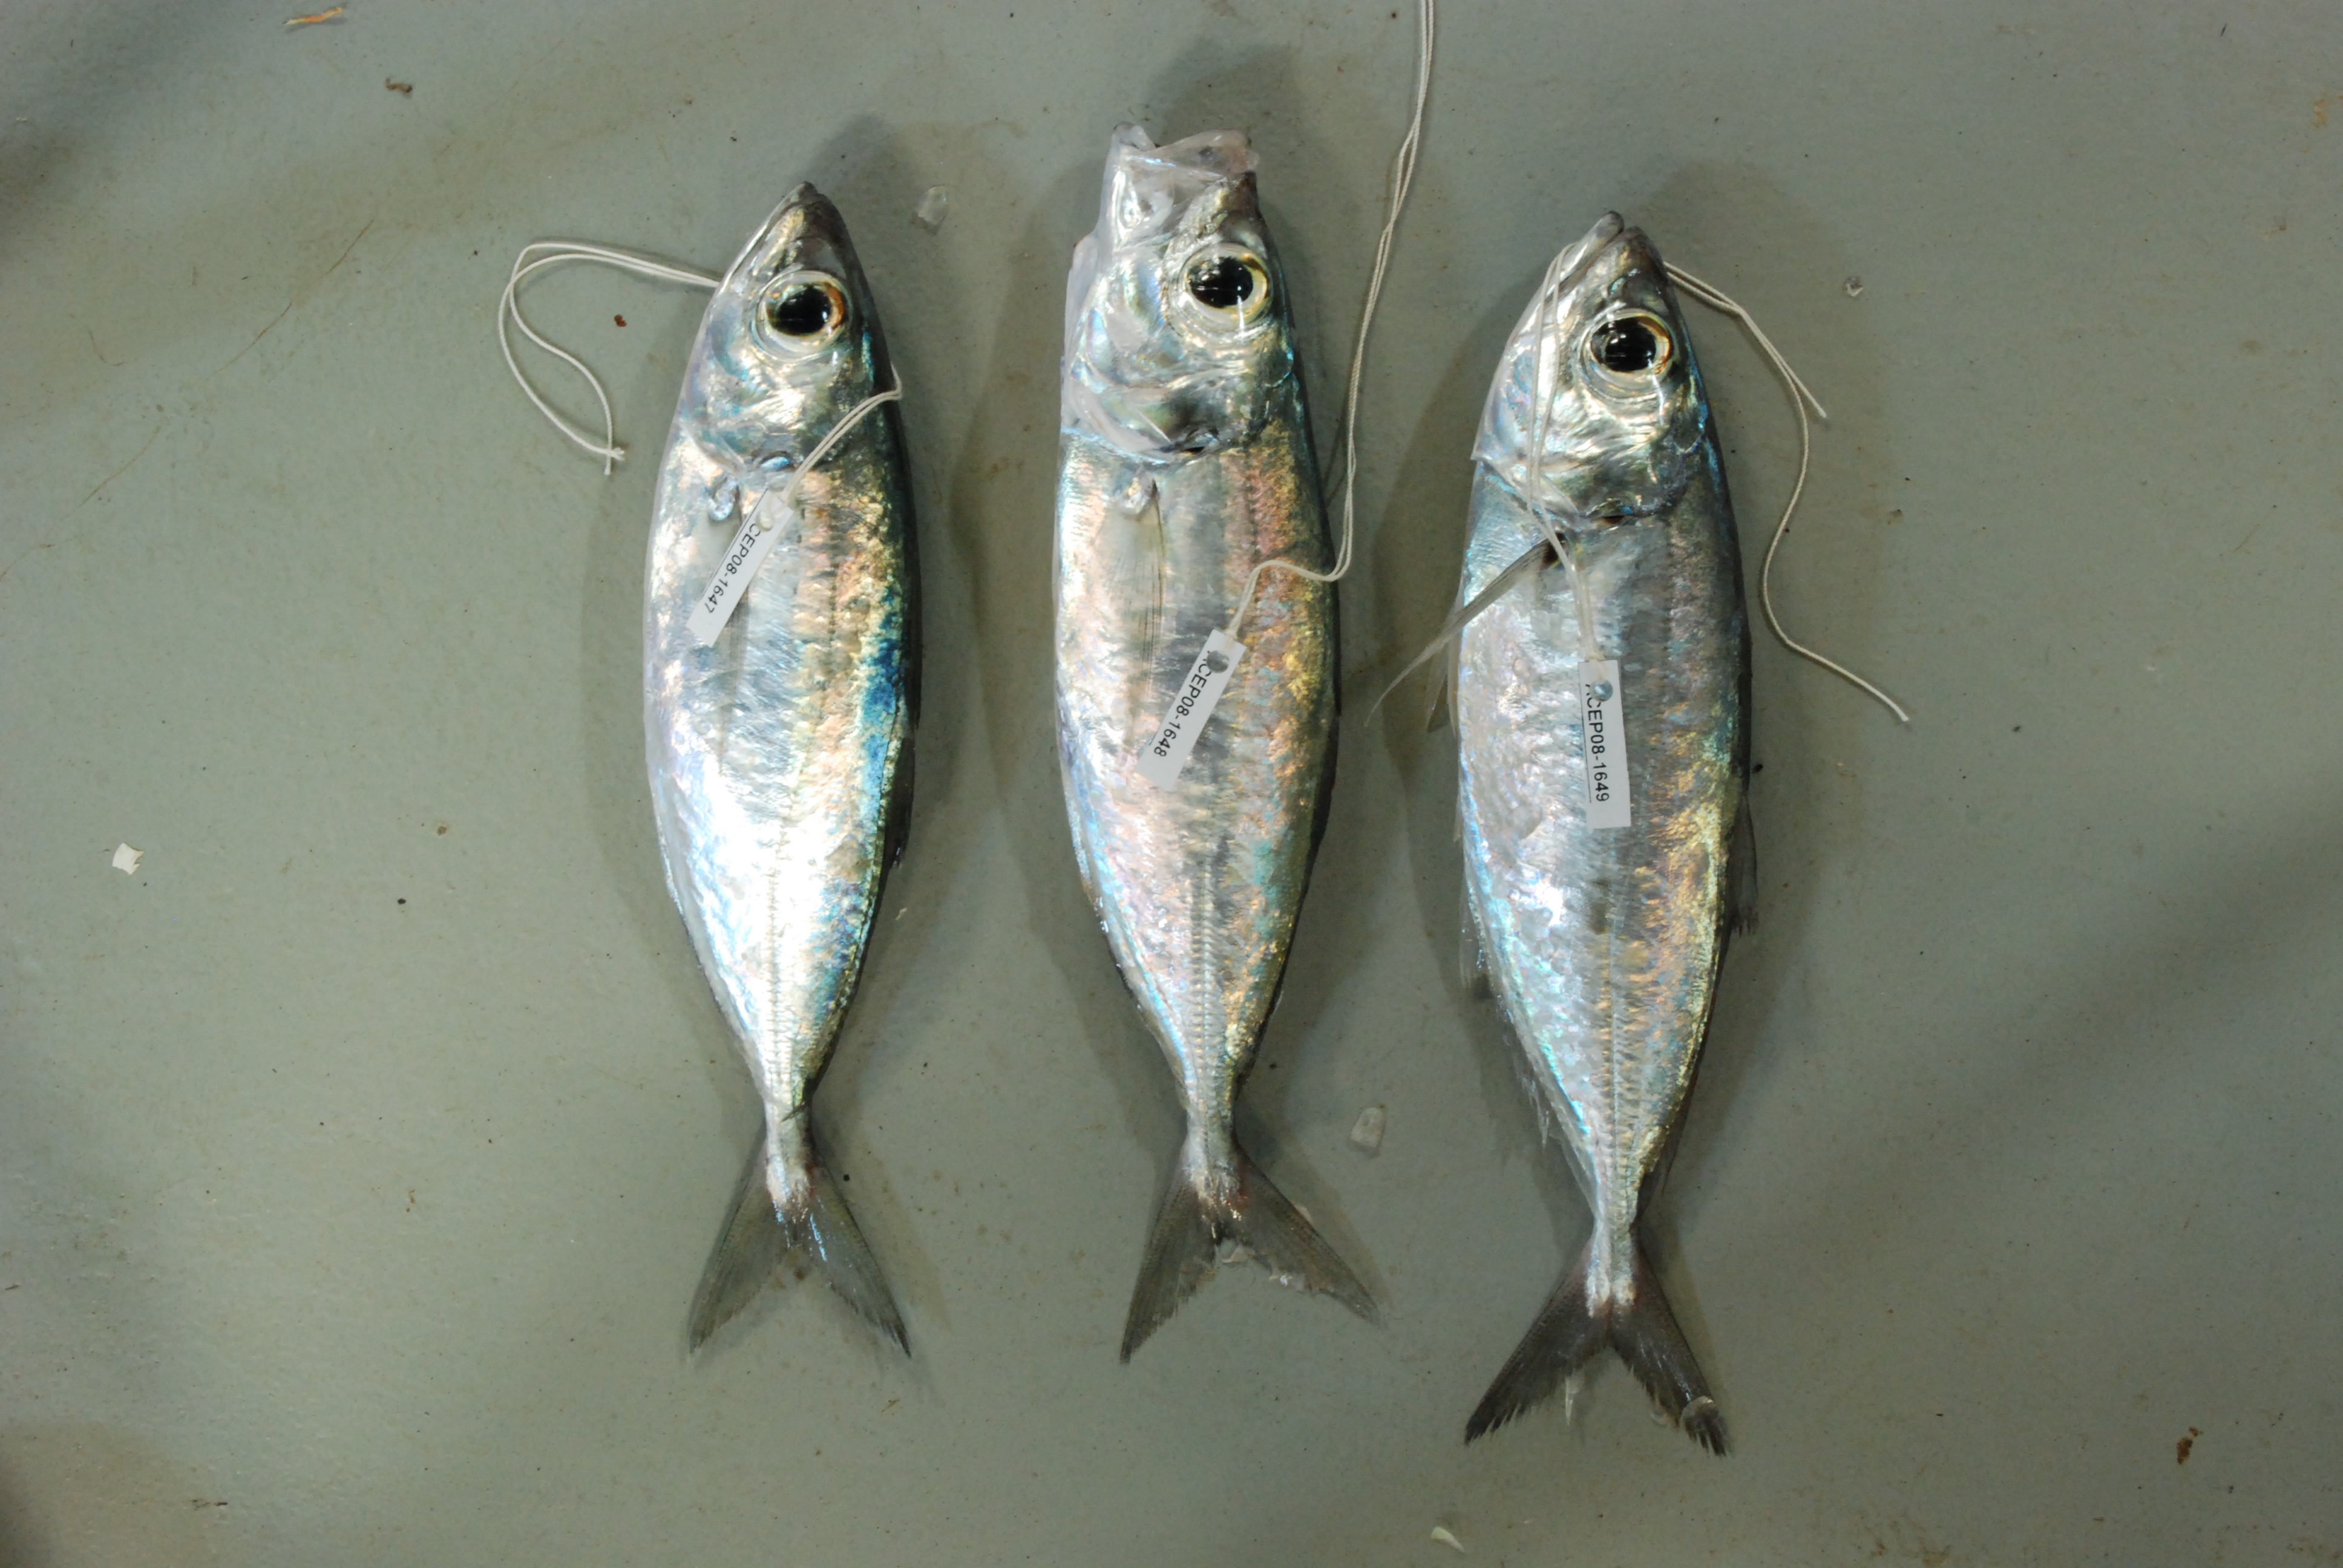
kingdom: Animalia
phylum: Chordata
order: Perciformes
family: Carangidae
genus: Selar
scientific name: Selar crumenophthalmus
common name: Bigeye scad
